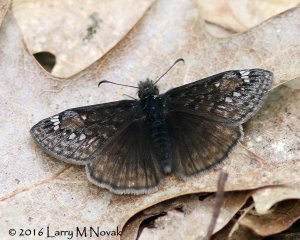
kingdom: Animalia
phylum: Arthropoda
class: Insecta
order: Lepidoptera
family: Hesperiidae
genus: Gesta
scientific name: Gesta
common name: Juvenal's Duskywing
